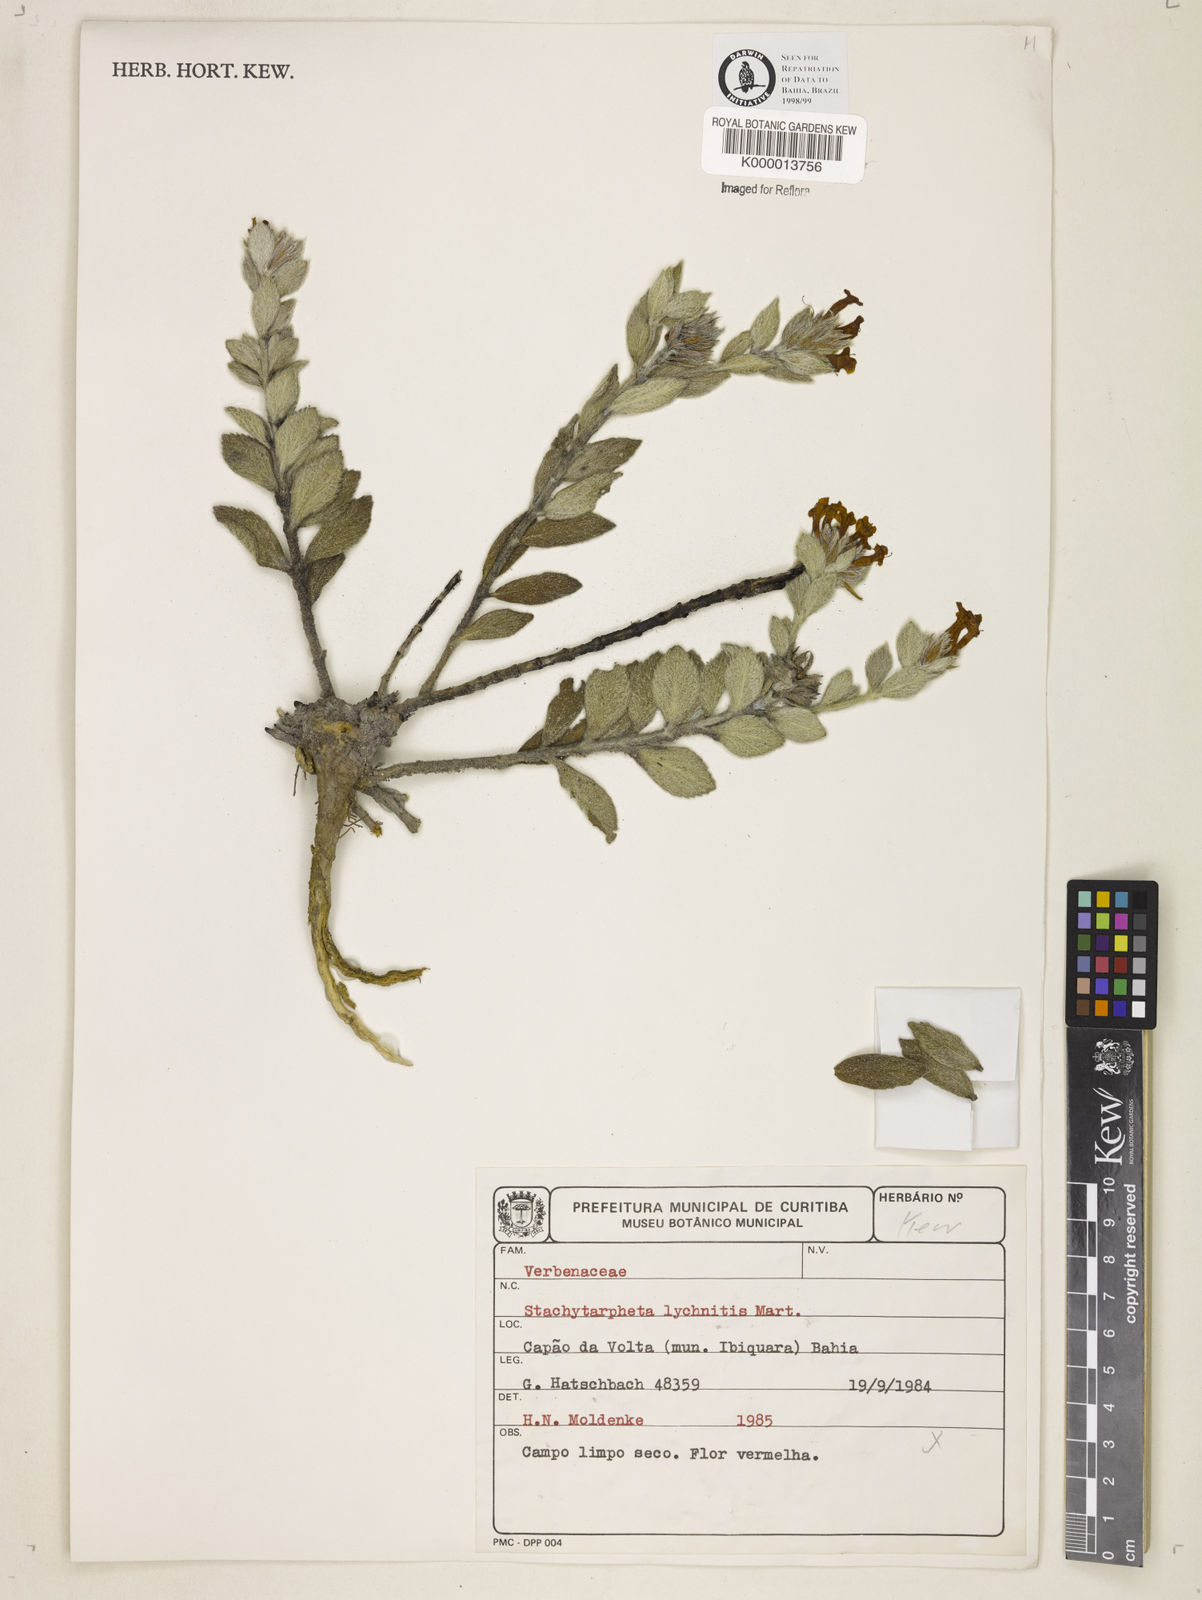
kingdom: Plantae
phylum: Tracheophyta
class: Magnoliopsida
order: Lamiales
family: Verbenaceae
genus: Stachytarpheta
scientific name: Stachytarpheta
